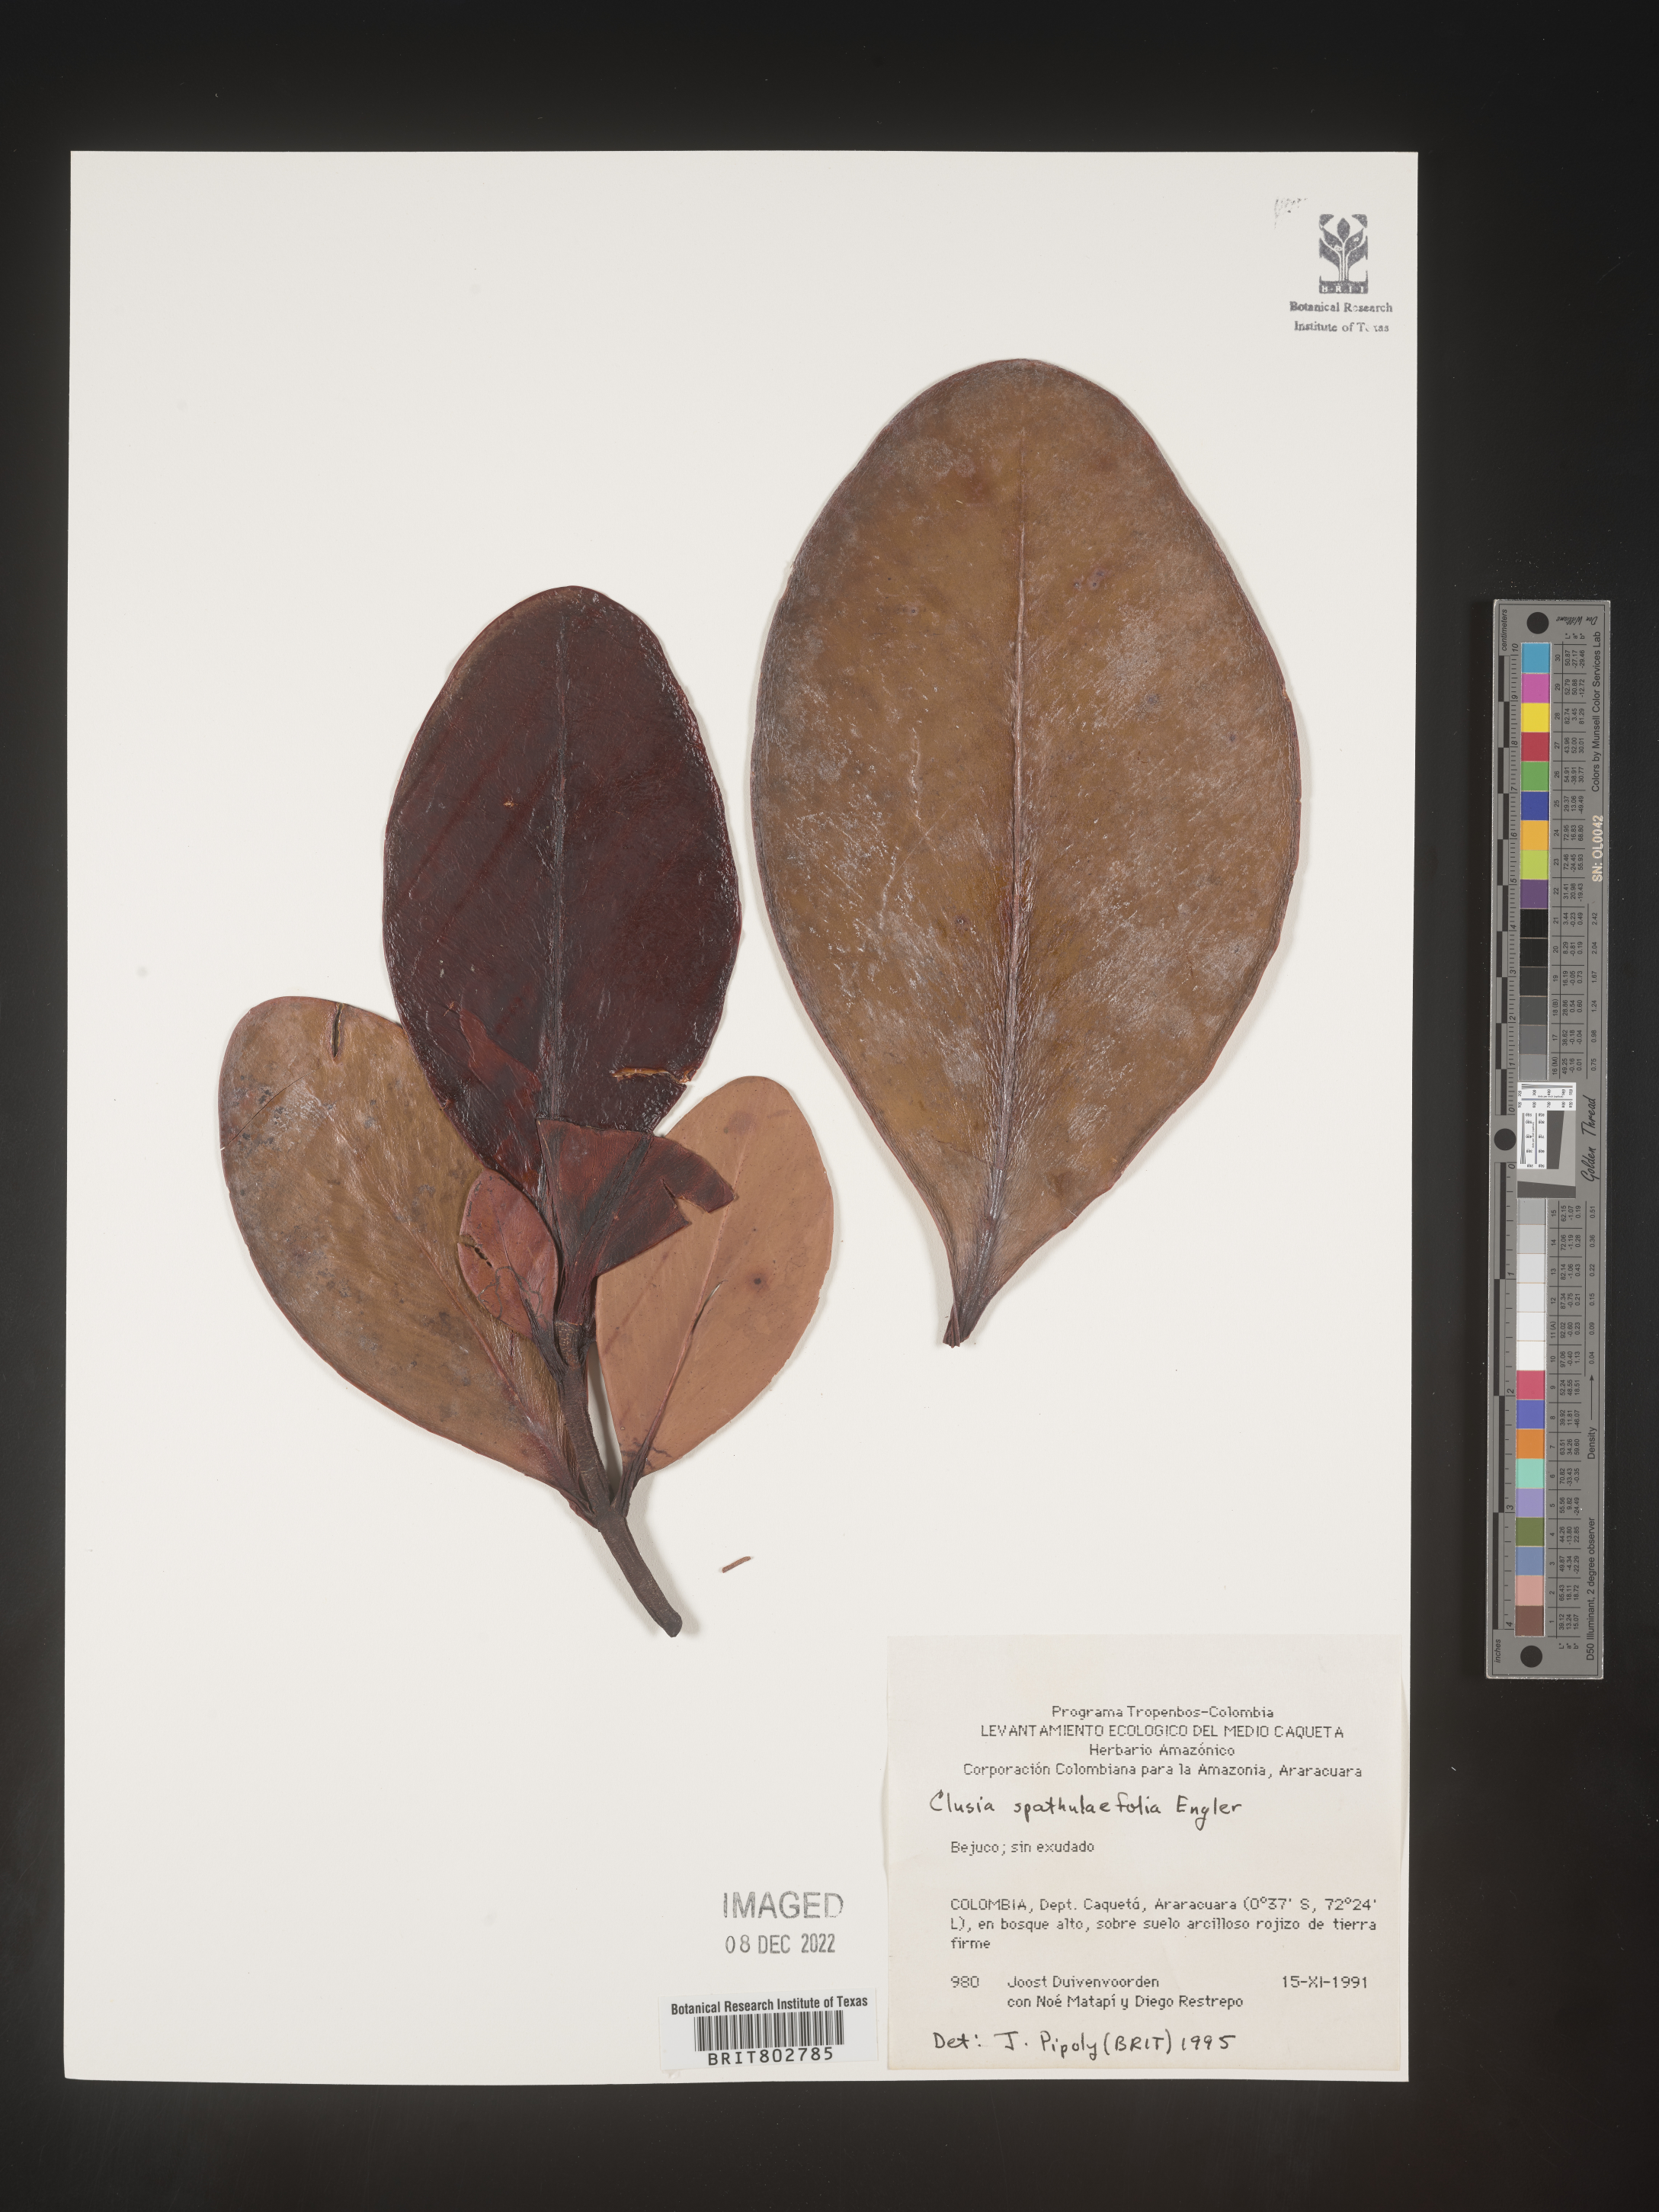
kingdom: Plantae
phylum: Tracheophyta
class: Magnoliopsida
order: Malpighiales
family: Clusiaceae
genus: Clusia
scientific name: Clusia spathulifolia
